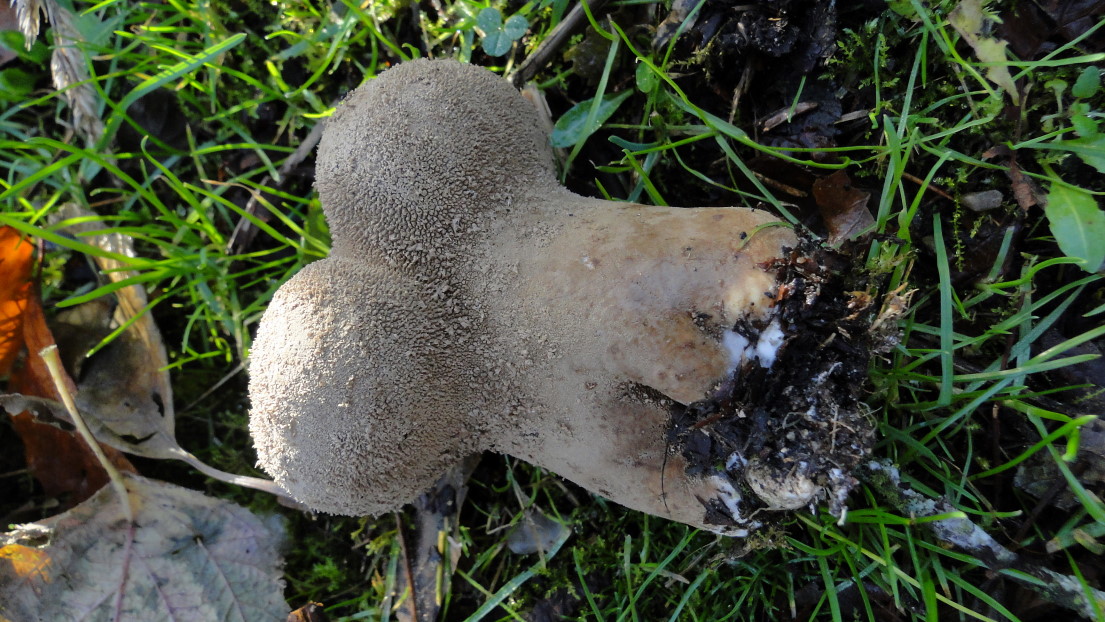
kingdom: Fungi
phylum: Basidiomycota
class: Agaricomycetes
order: Agaricales
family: Lycoperdaceae
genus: Lycoperdon
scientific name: Lycoperdon excipuliforme
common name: højstokket støvbold
